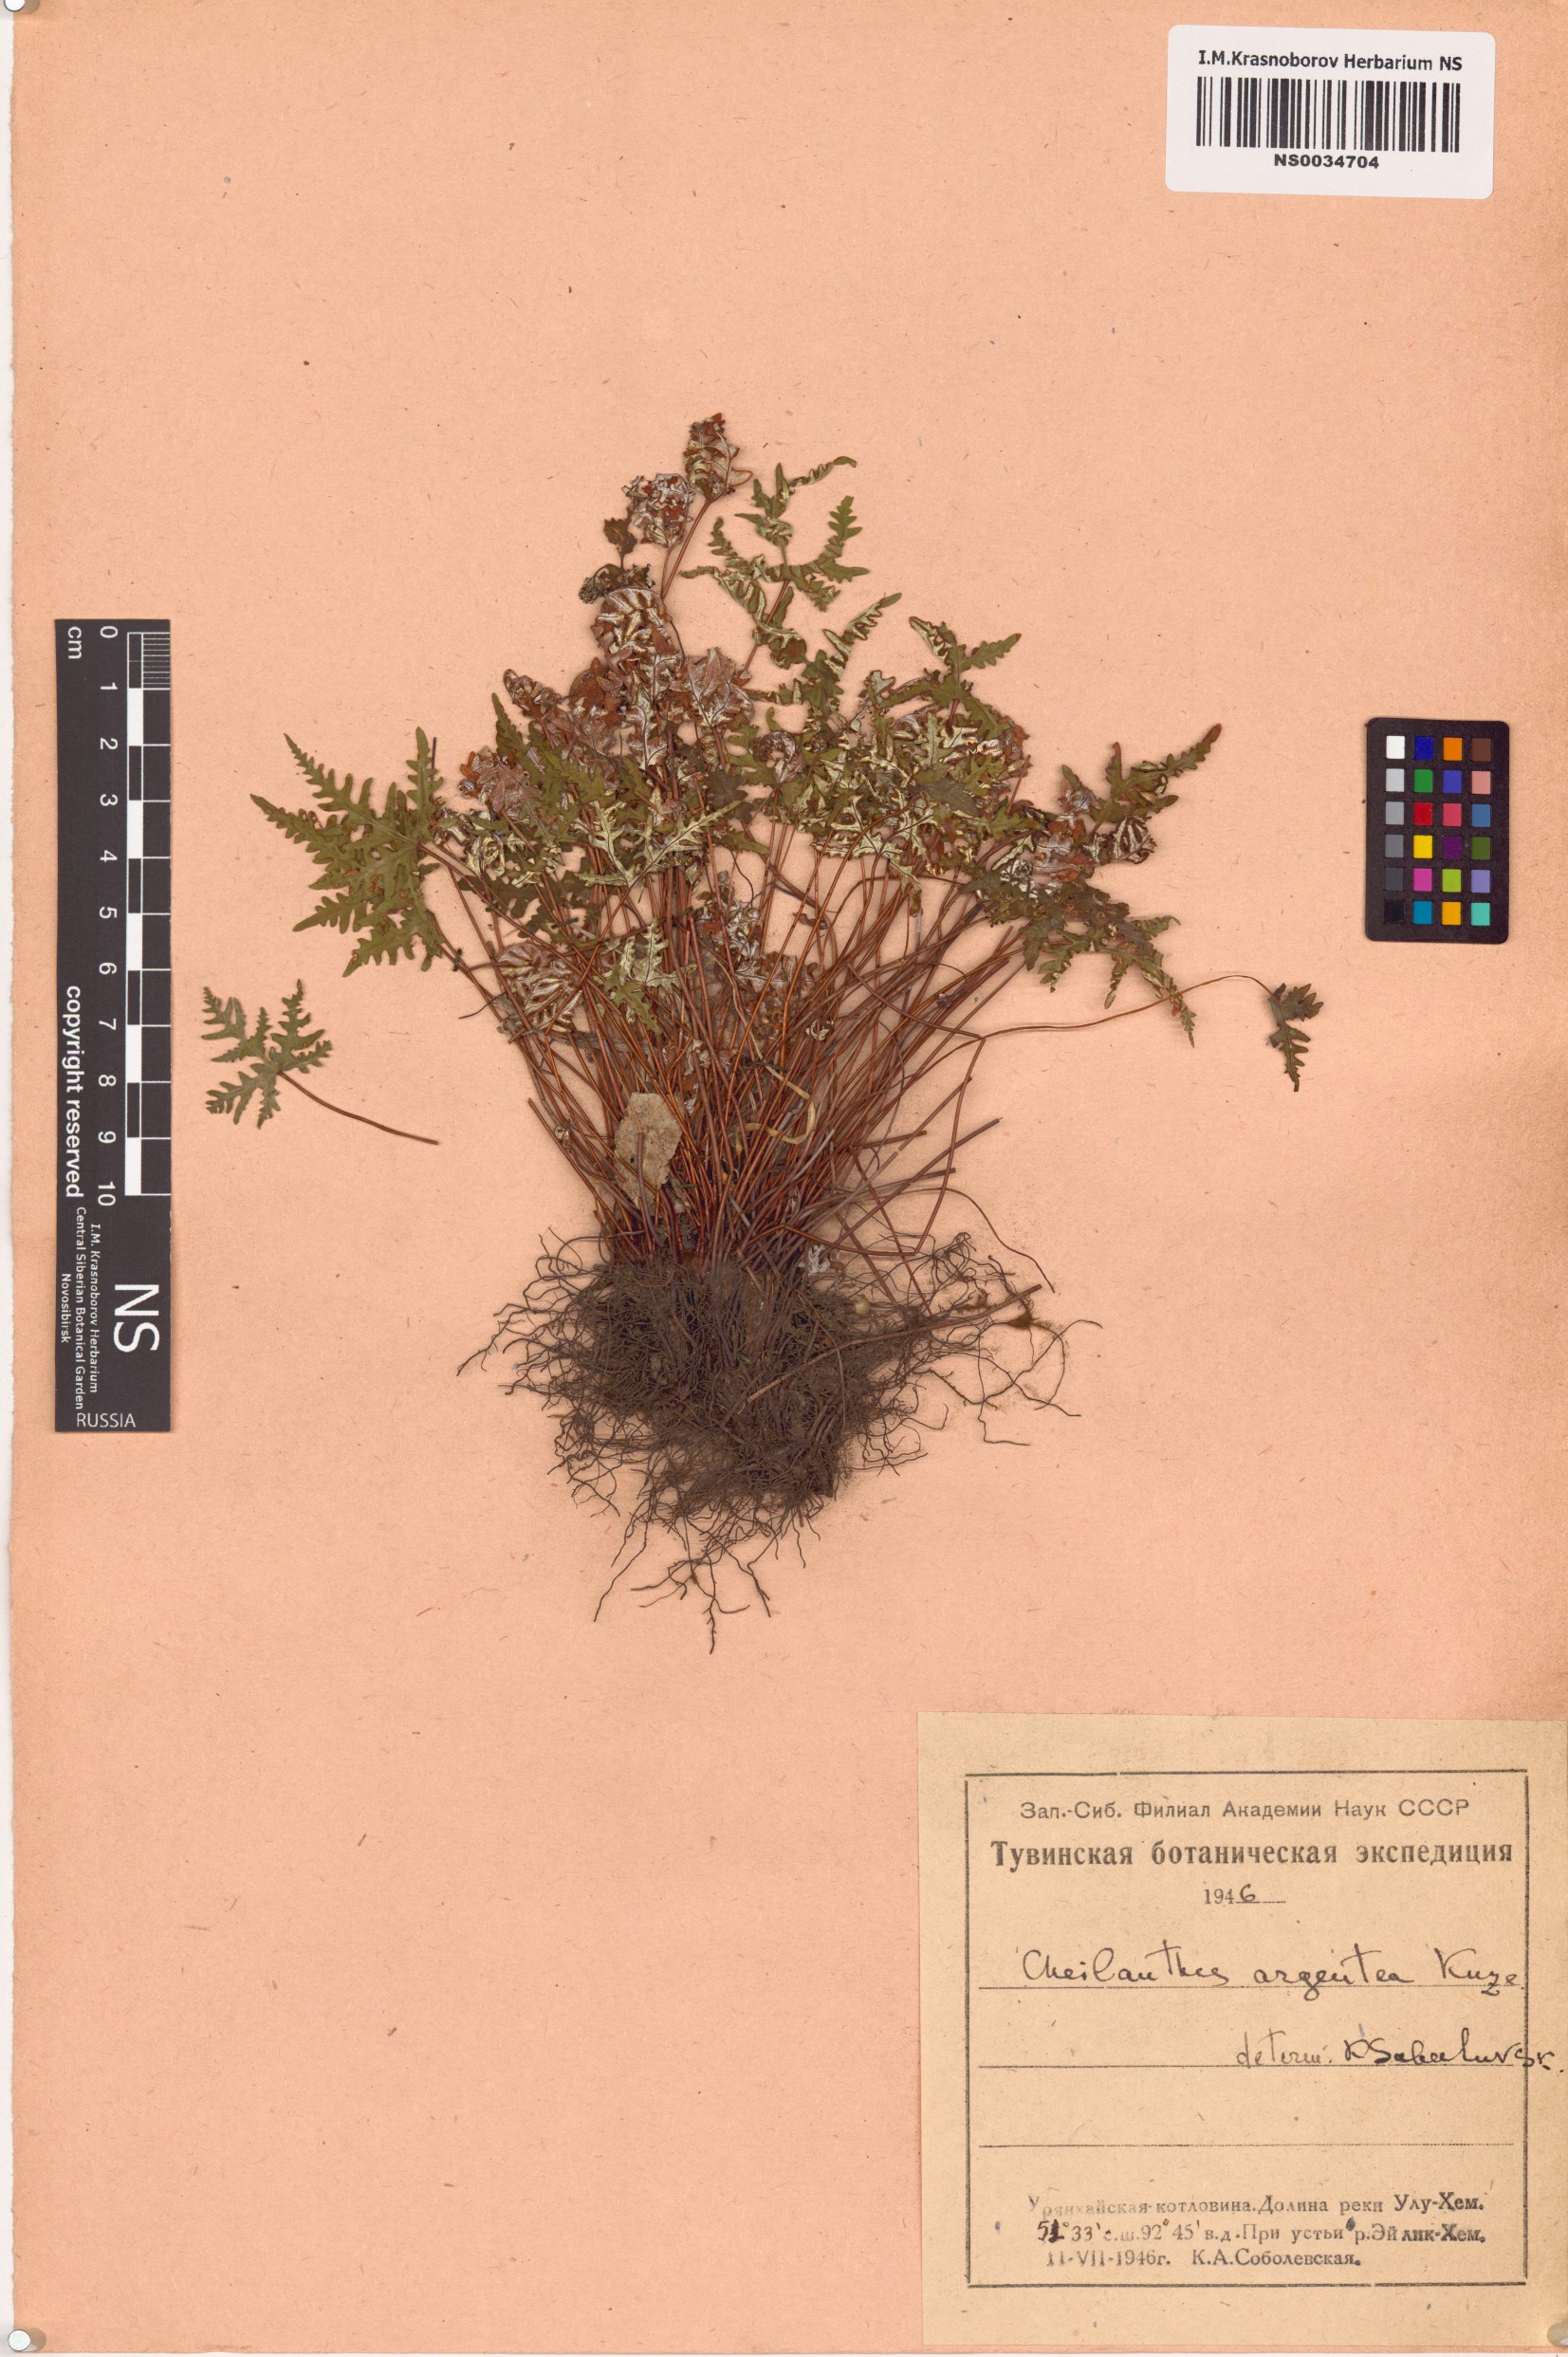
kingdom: Plantae
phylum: Tracheophyta
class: Polypodiopsida
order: Polypodiales
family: Pteridaceae
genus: Aleuritopteris
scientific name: Aleuritopteris argentea
